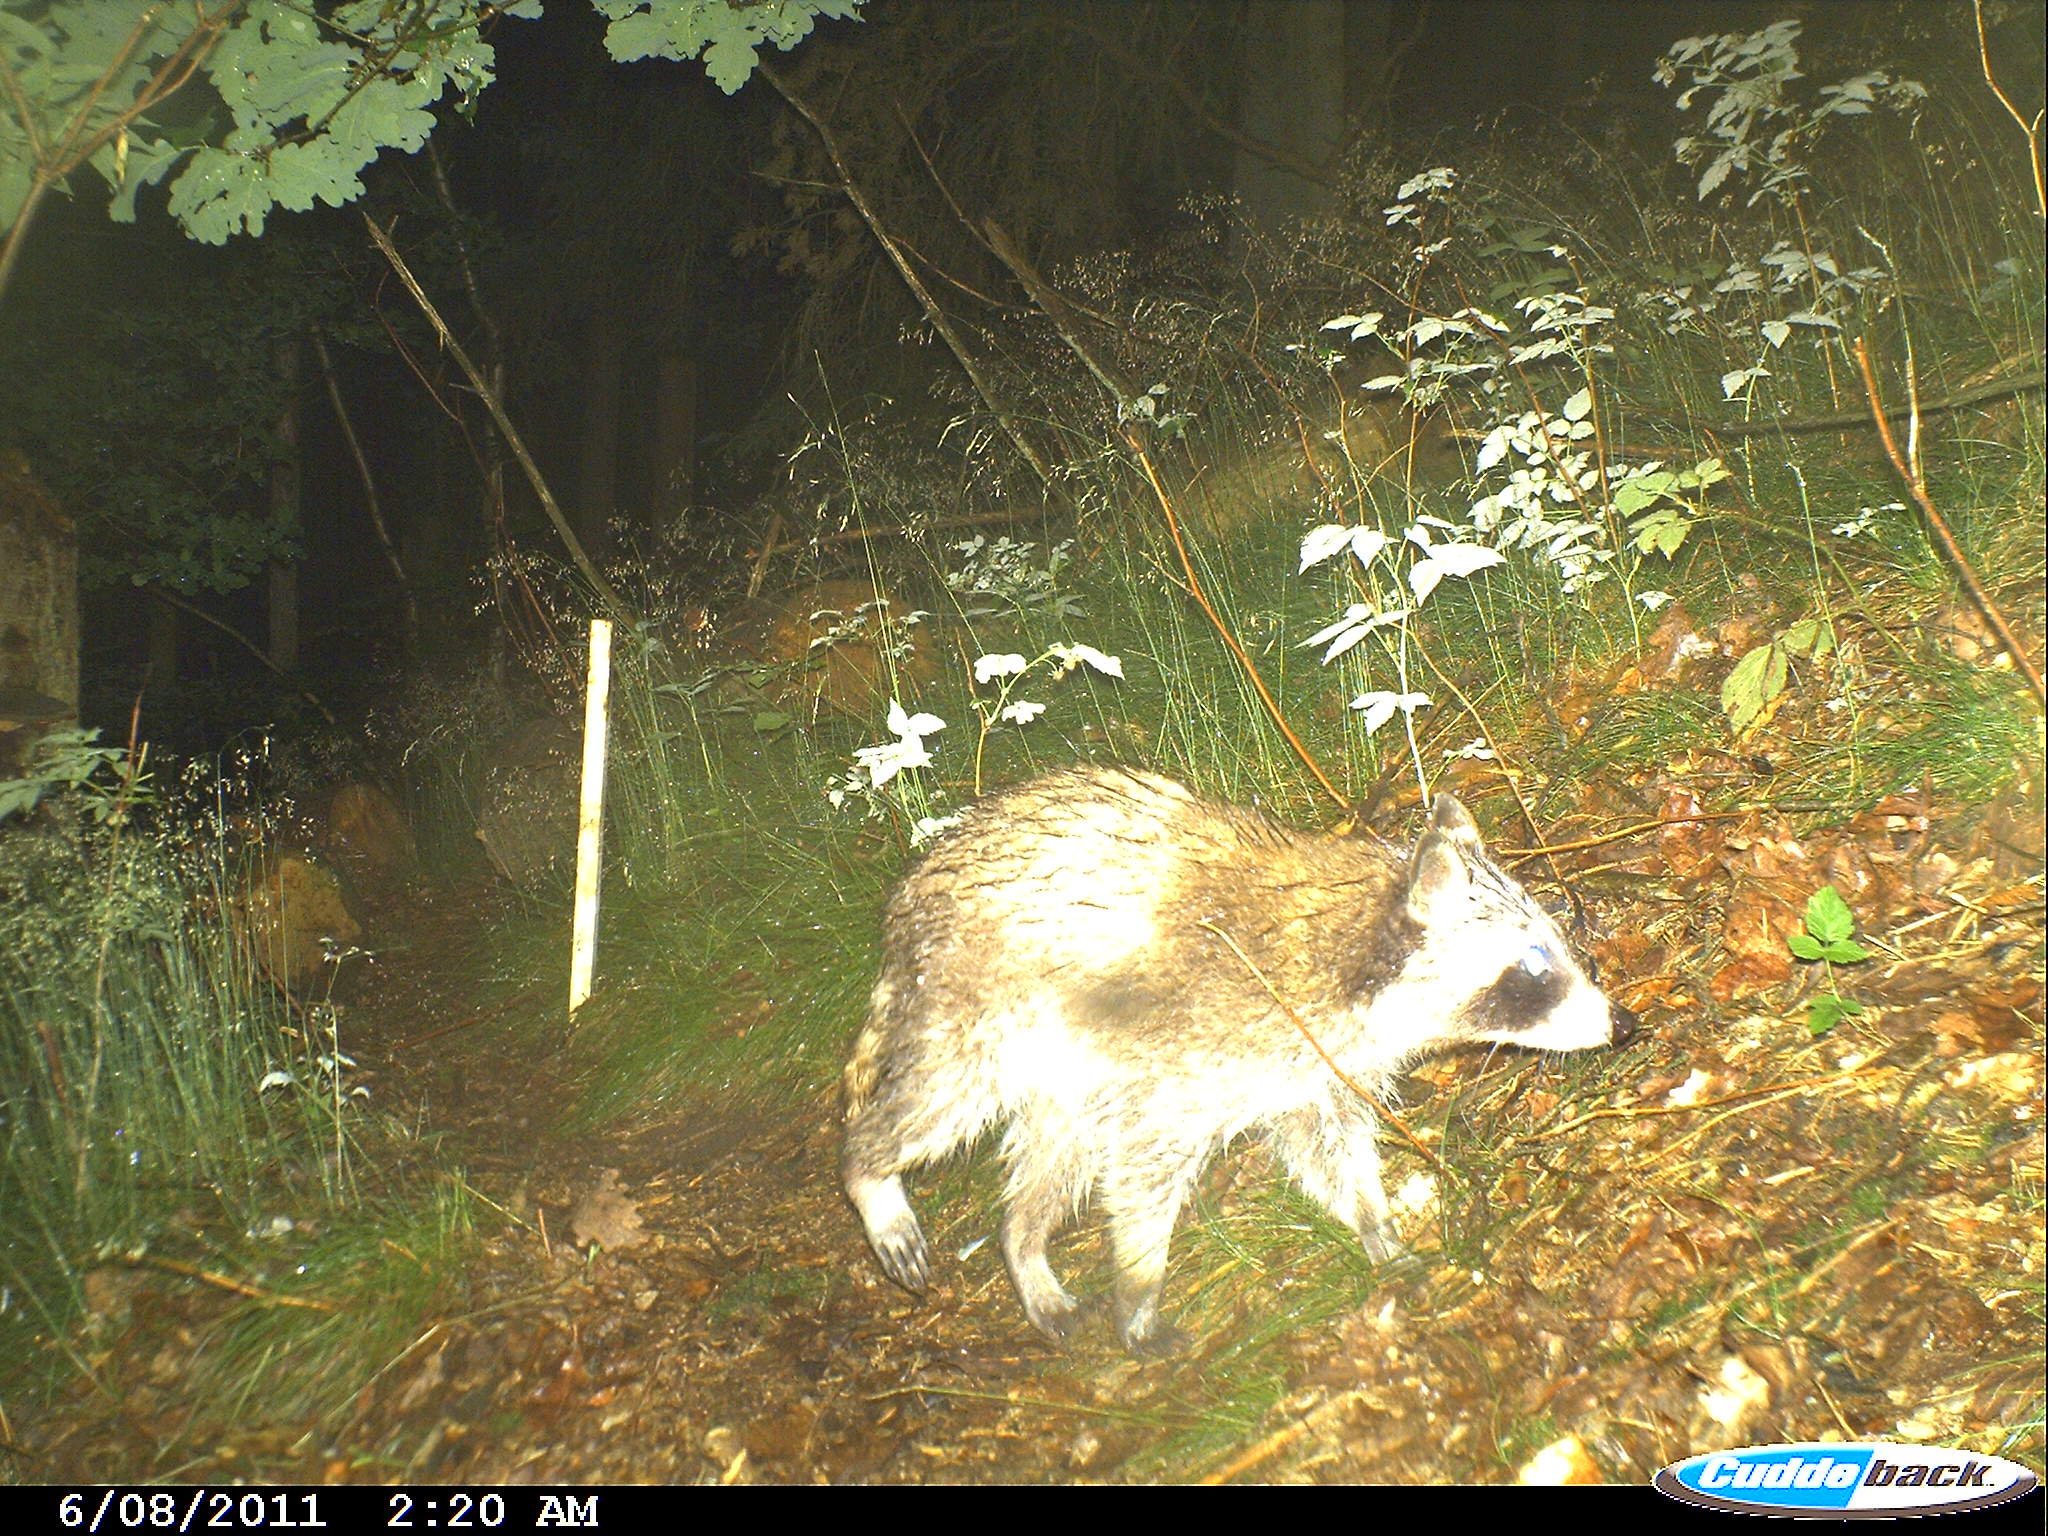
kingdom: Animalia
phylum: Chordata
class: Mammalia
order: Carnivora
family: Procyonidae
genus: Procyon
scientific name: Procyon lotor
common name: Raccoon
